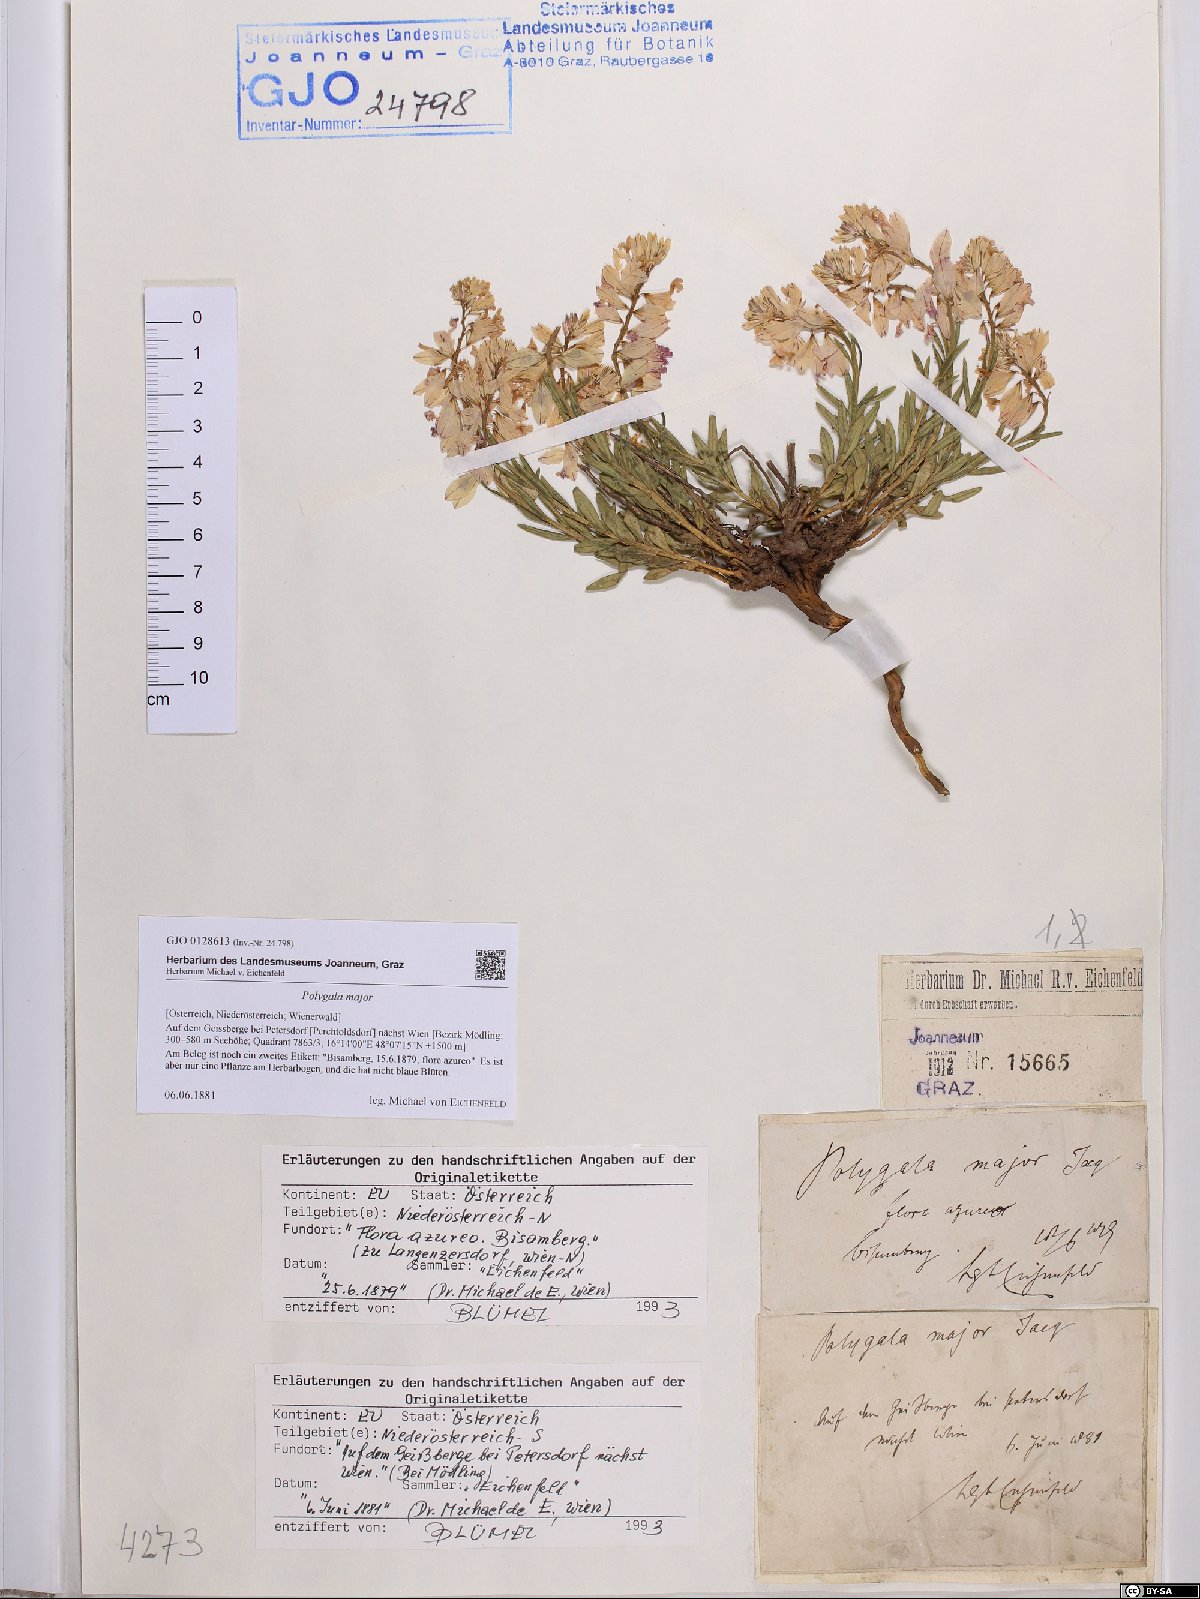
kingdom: Plantae
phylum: Tracheophyta
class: Magnoliopsida
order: Fabales
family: Polygalaceae
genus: Polygala
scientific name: Polygala major
